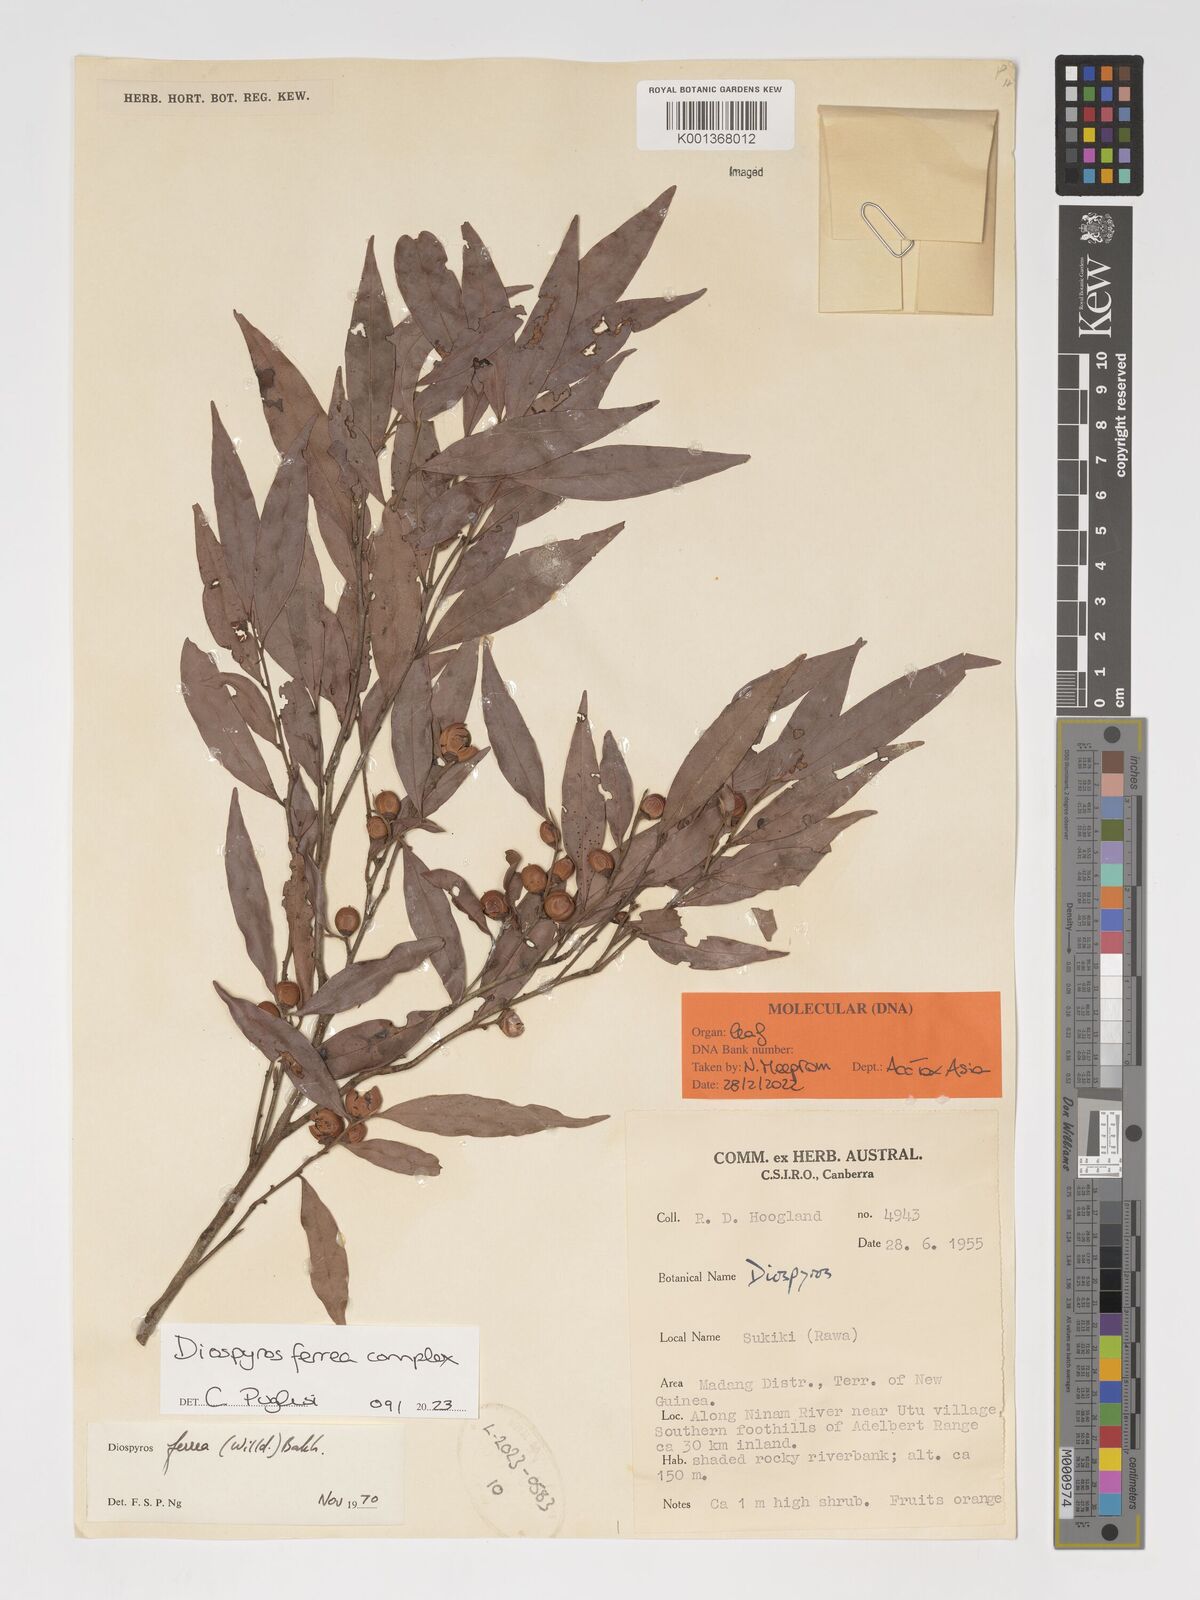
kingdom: Plantae
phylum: Tracheophyta
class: Magnoliopsida
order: Ericales
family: Ebenaceae
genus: Diospyros
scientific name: Diospyros ferrea
